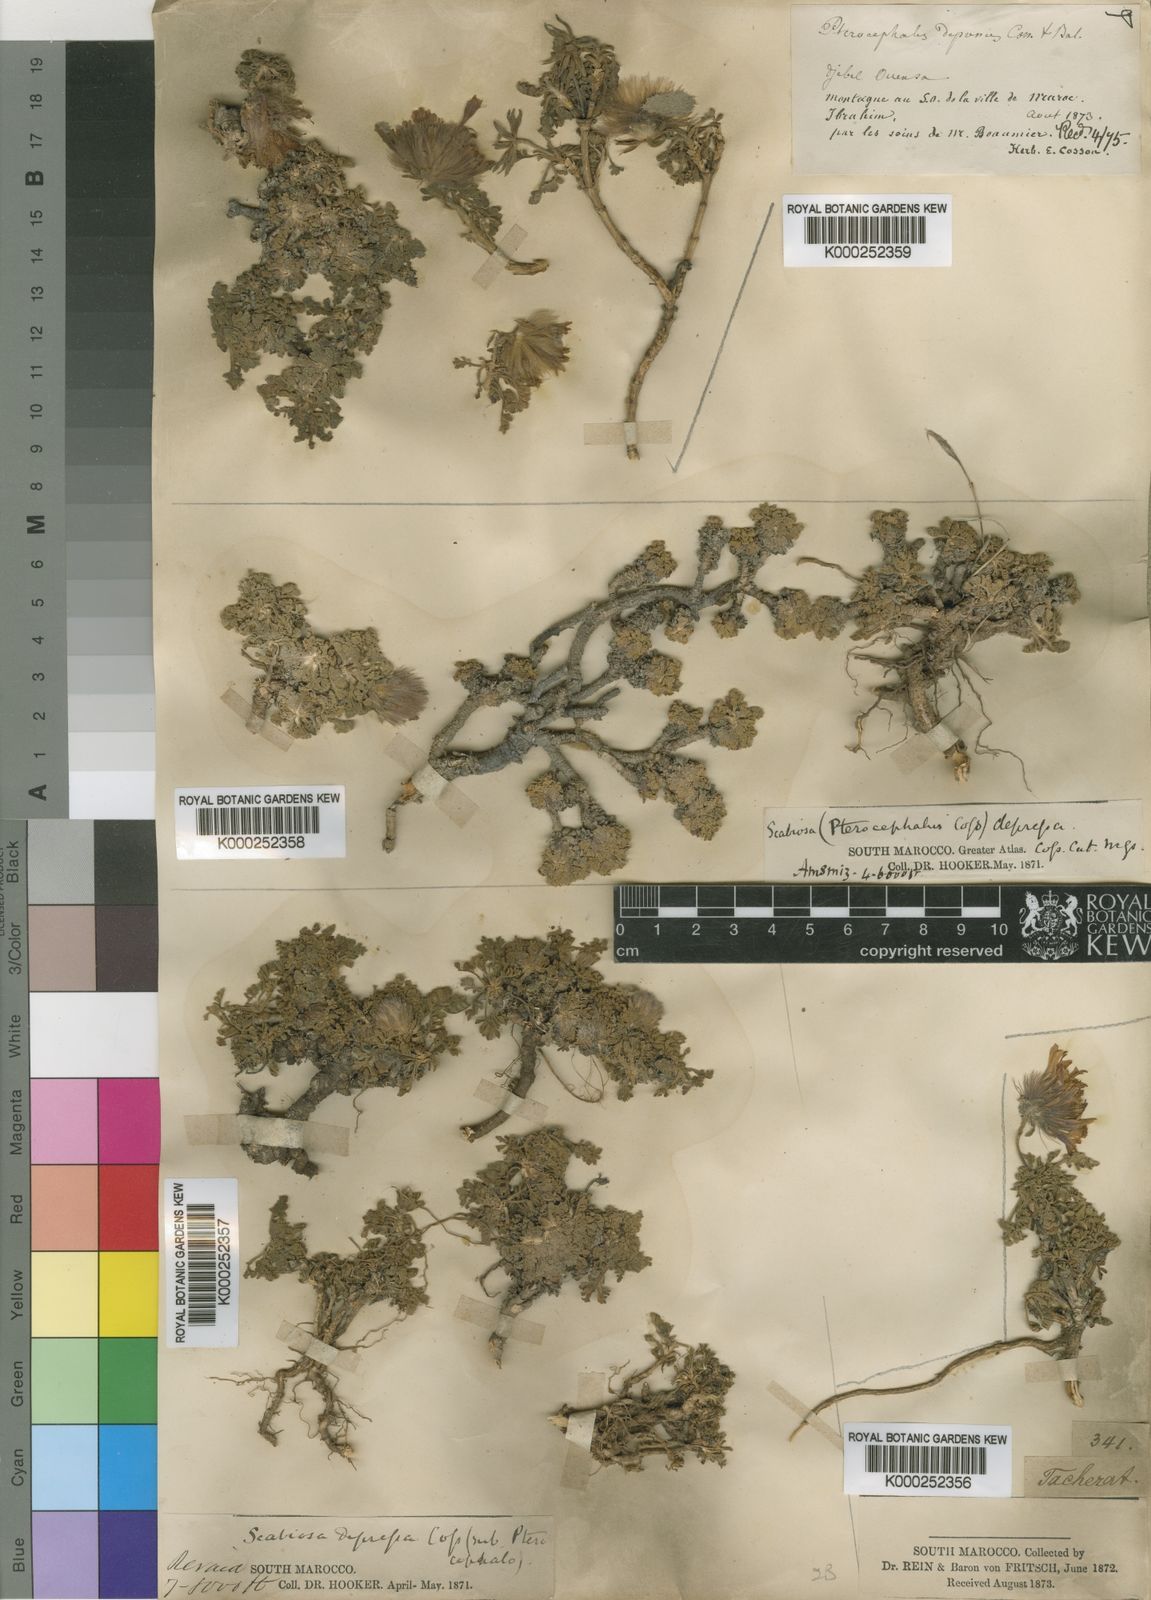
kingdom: Plantae
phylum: Tracheophyta
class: Magnoliopsida
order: Dipsacales
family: Caprifoliaceae
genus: Pterocephalus
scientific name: Pterocephalus depressus
